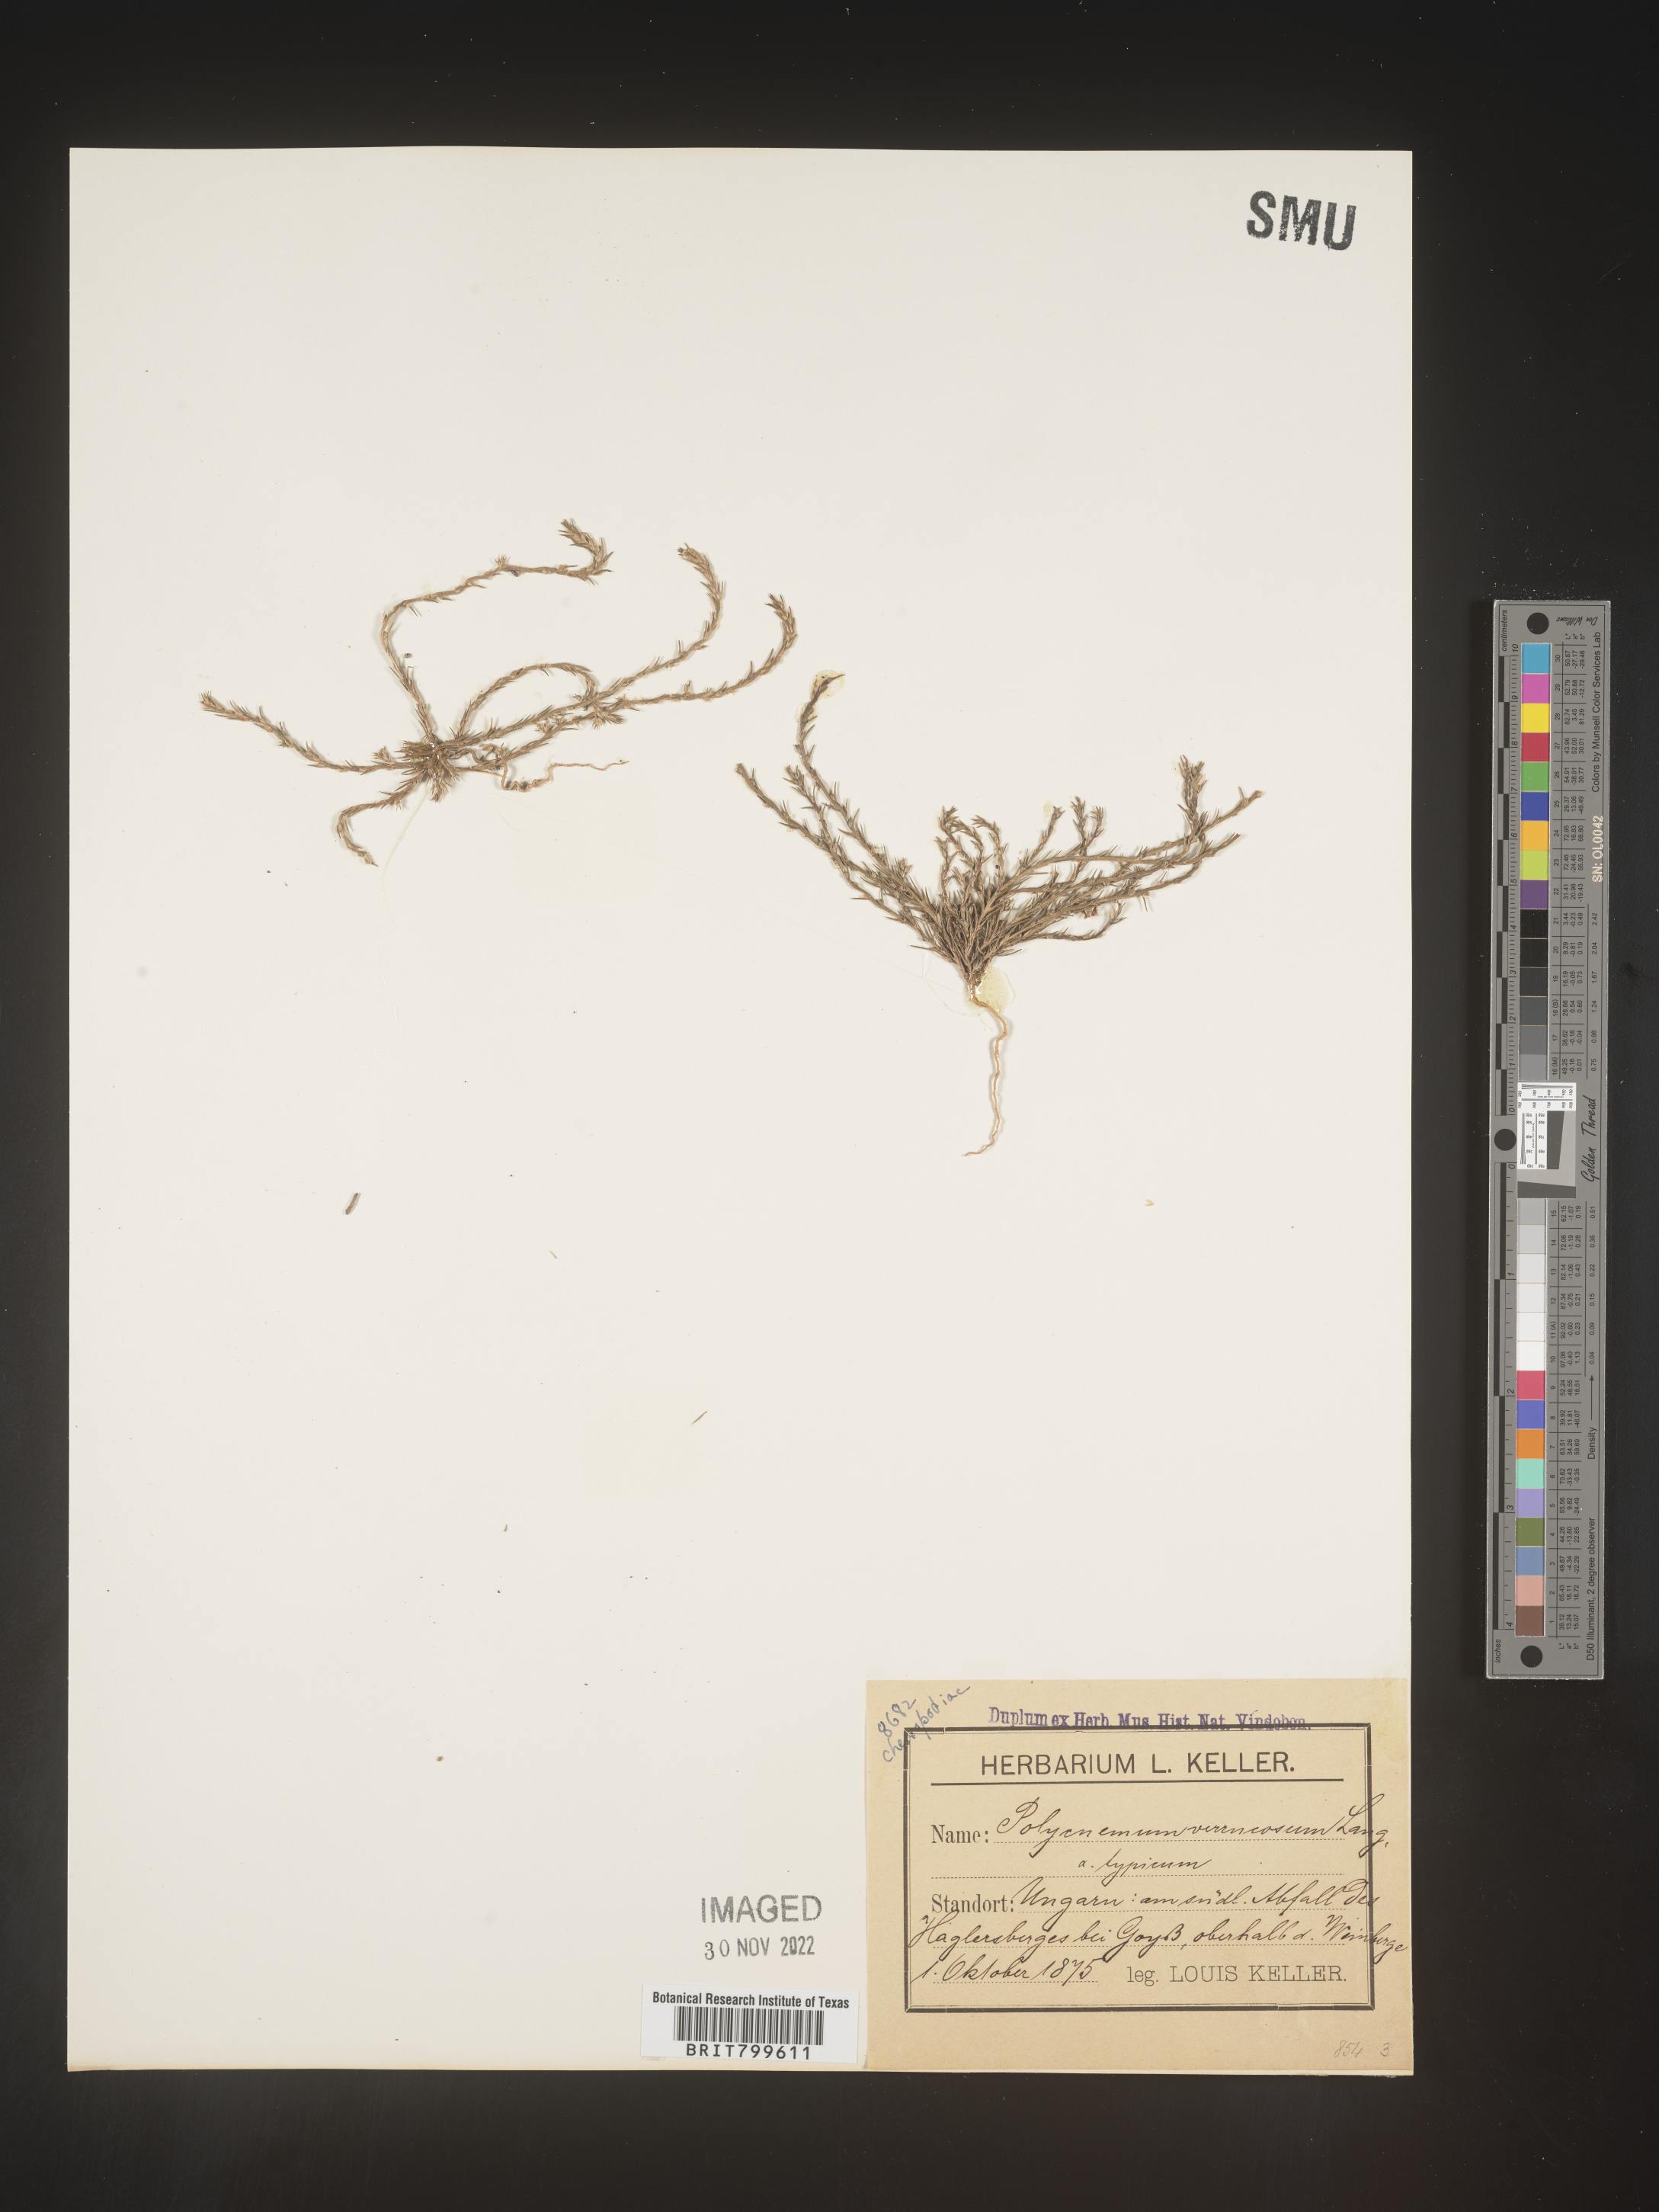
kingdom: Plantae
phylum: Tracheophyta
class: Magnoliopsida
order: Caryophyllales
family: Amaranthaceae
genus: Polycnemum
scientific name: Polycnemum
